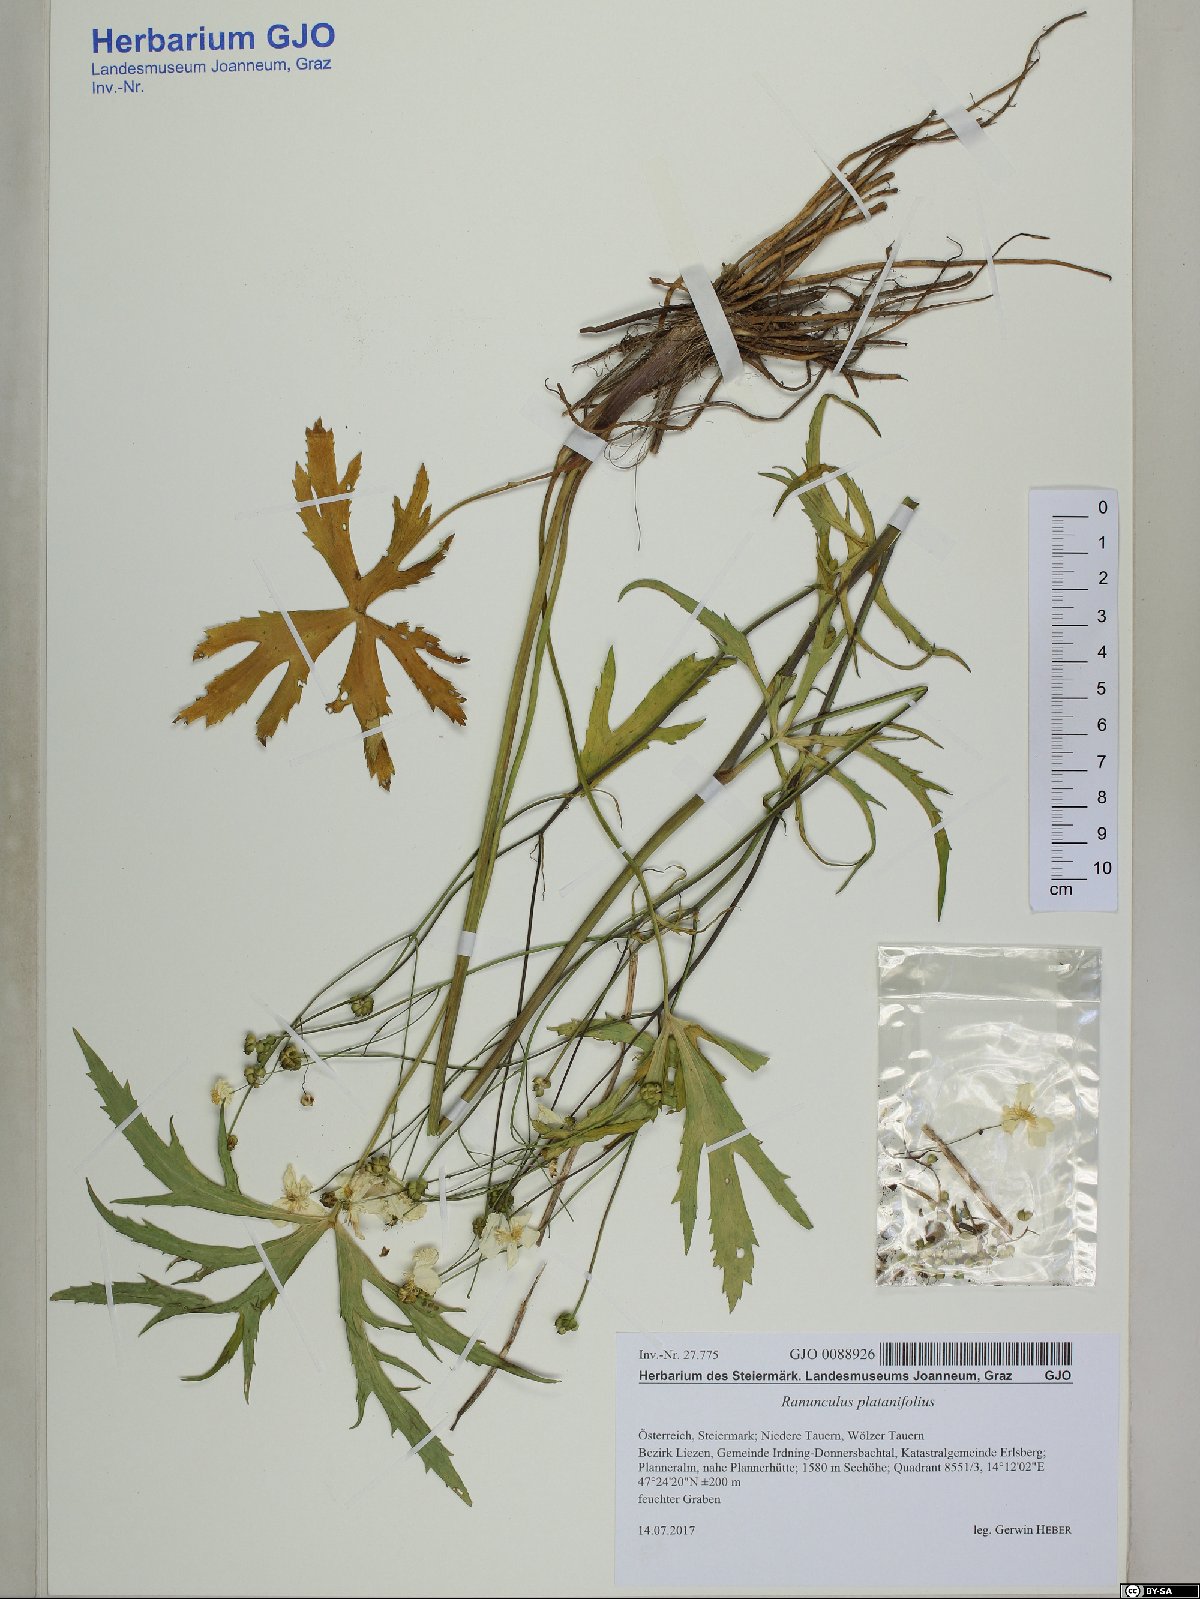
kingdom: Plantae
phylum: Tracheophyta
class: Magnoliopsida
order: Ranunculales
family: Ranunculaceae
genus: Ranunculus
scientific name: Ranunculus platanifolius
